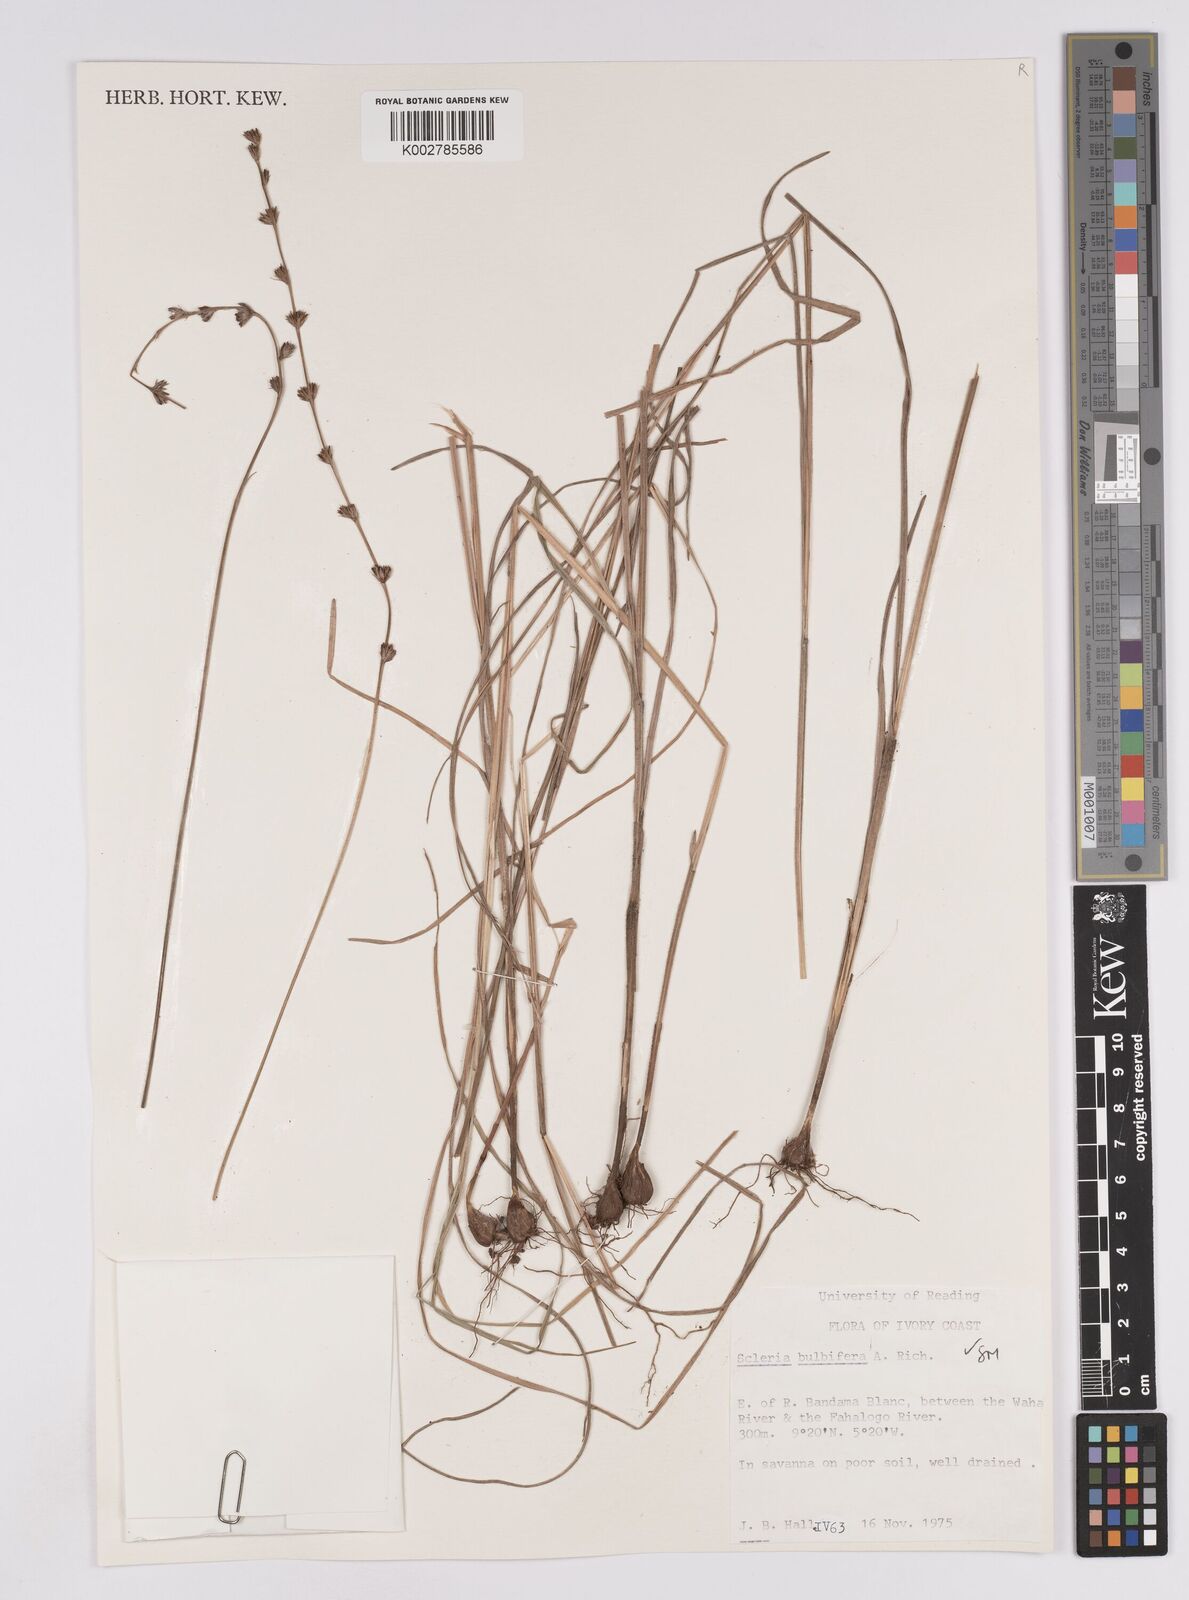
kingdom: Plantae
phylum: Tracheophyta
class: Liliopsida
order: Poales
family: Cyperaceae
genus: Scleria
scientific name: Scleria bulbifera
